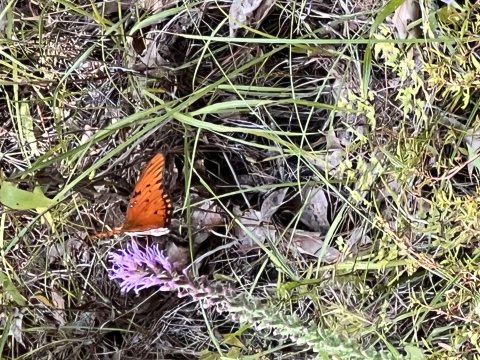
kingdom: Animalia
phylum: Arthropoda
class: Insecta
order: Lepidoptera
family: Nymphalidae
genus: Dione
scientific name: Dione vanillae
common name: Gulf Fritillary
